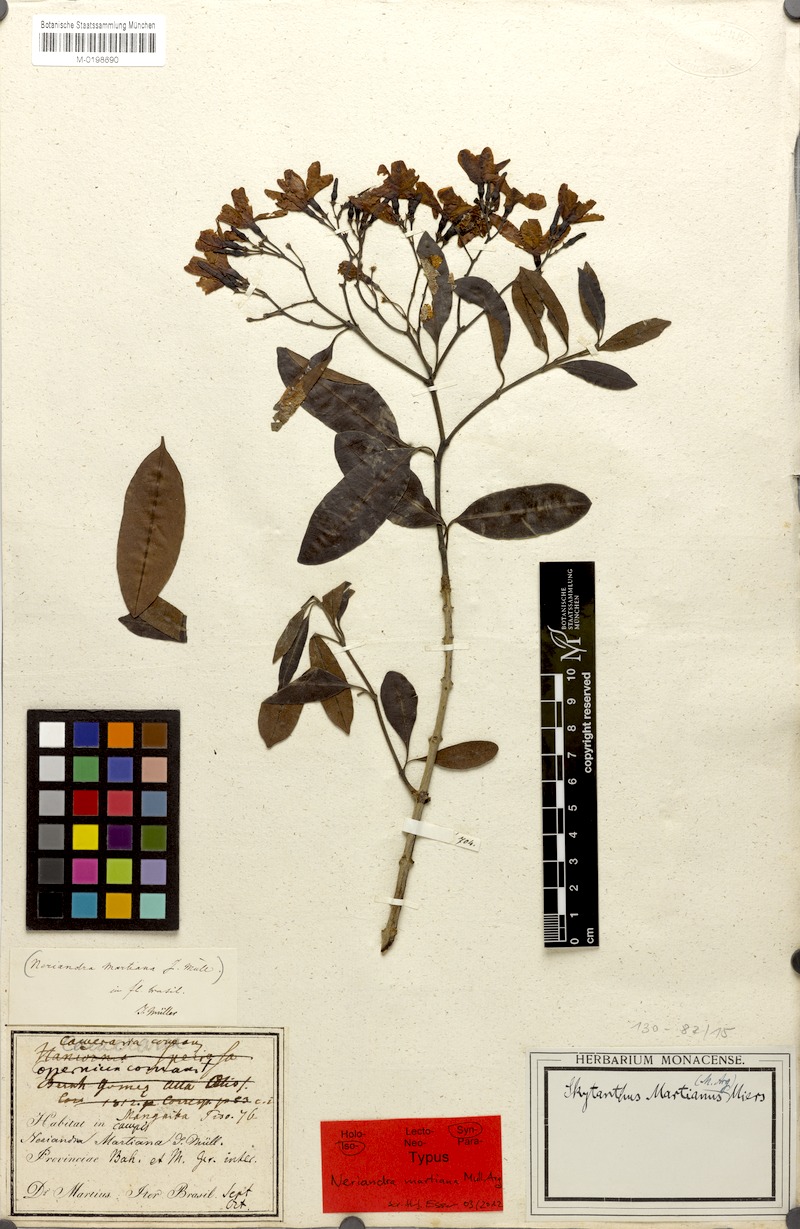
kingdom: Plantae
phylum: Tracheophyta
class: Magnoliopsida
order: Gentianales
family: Apocynaceae
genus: Skytanthus
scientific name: Skytanthus martianus
